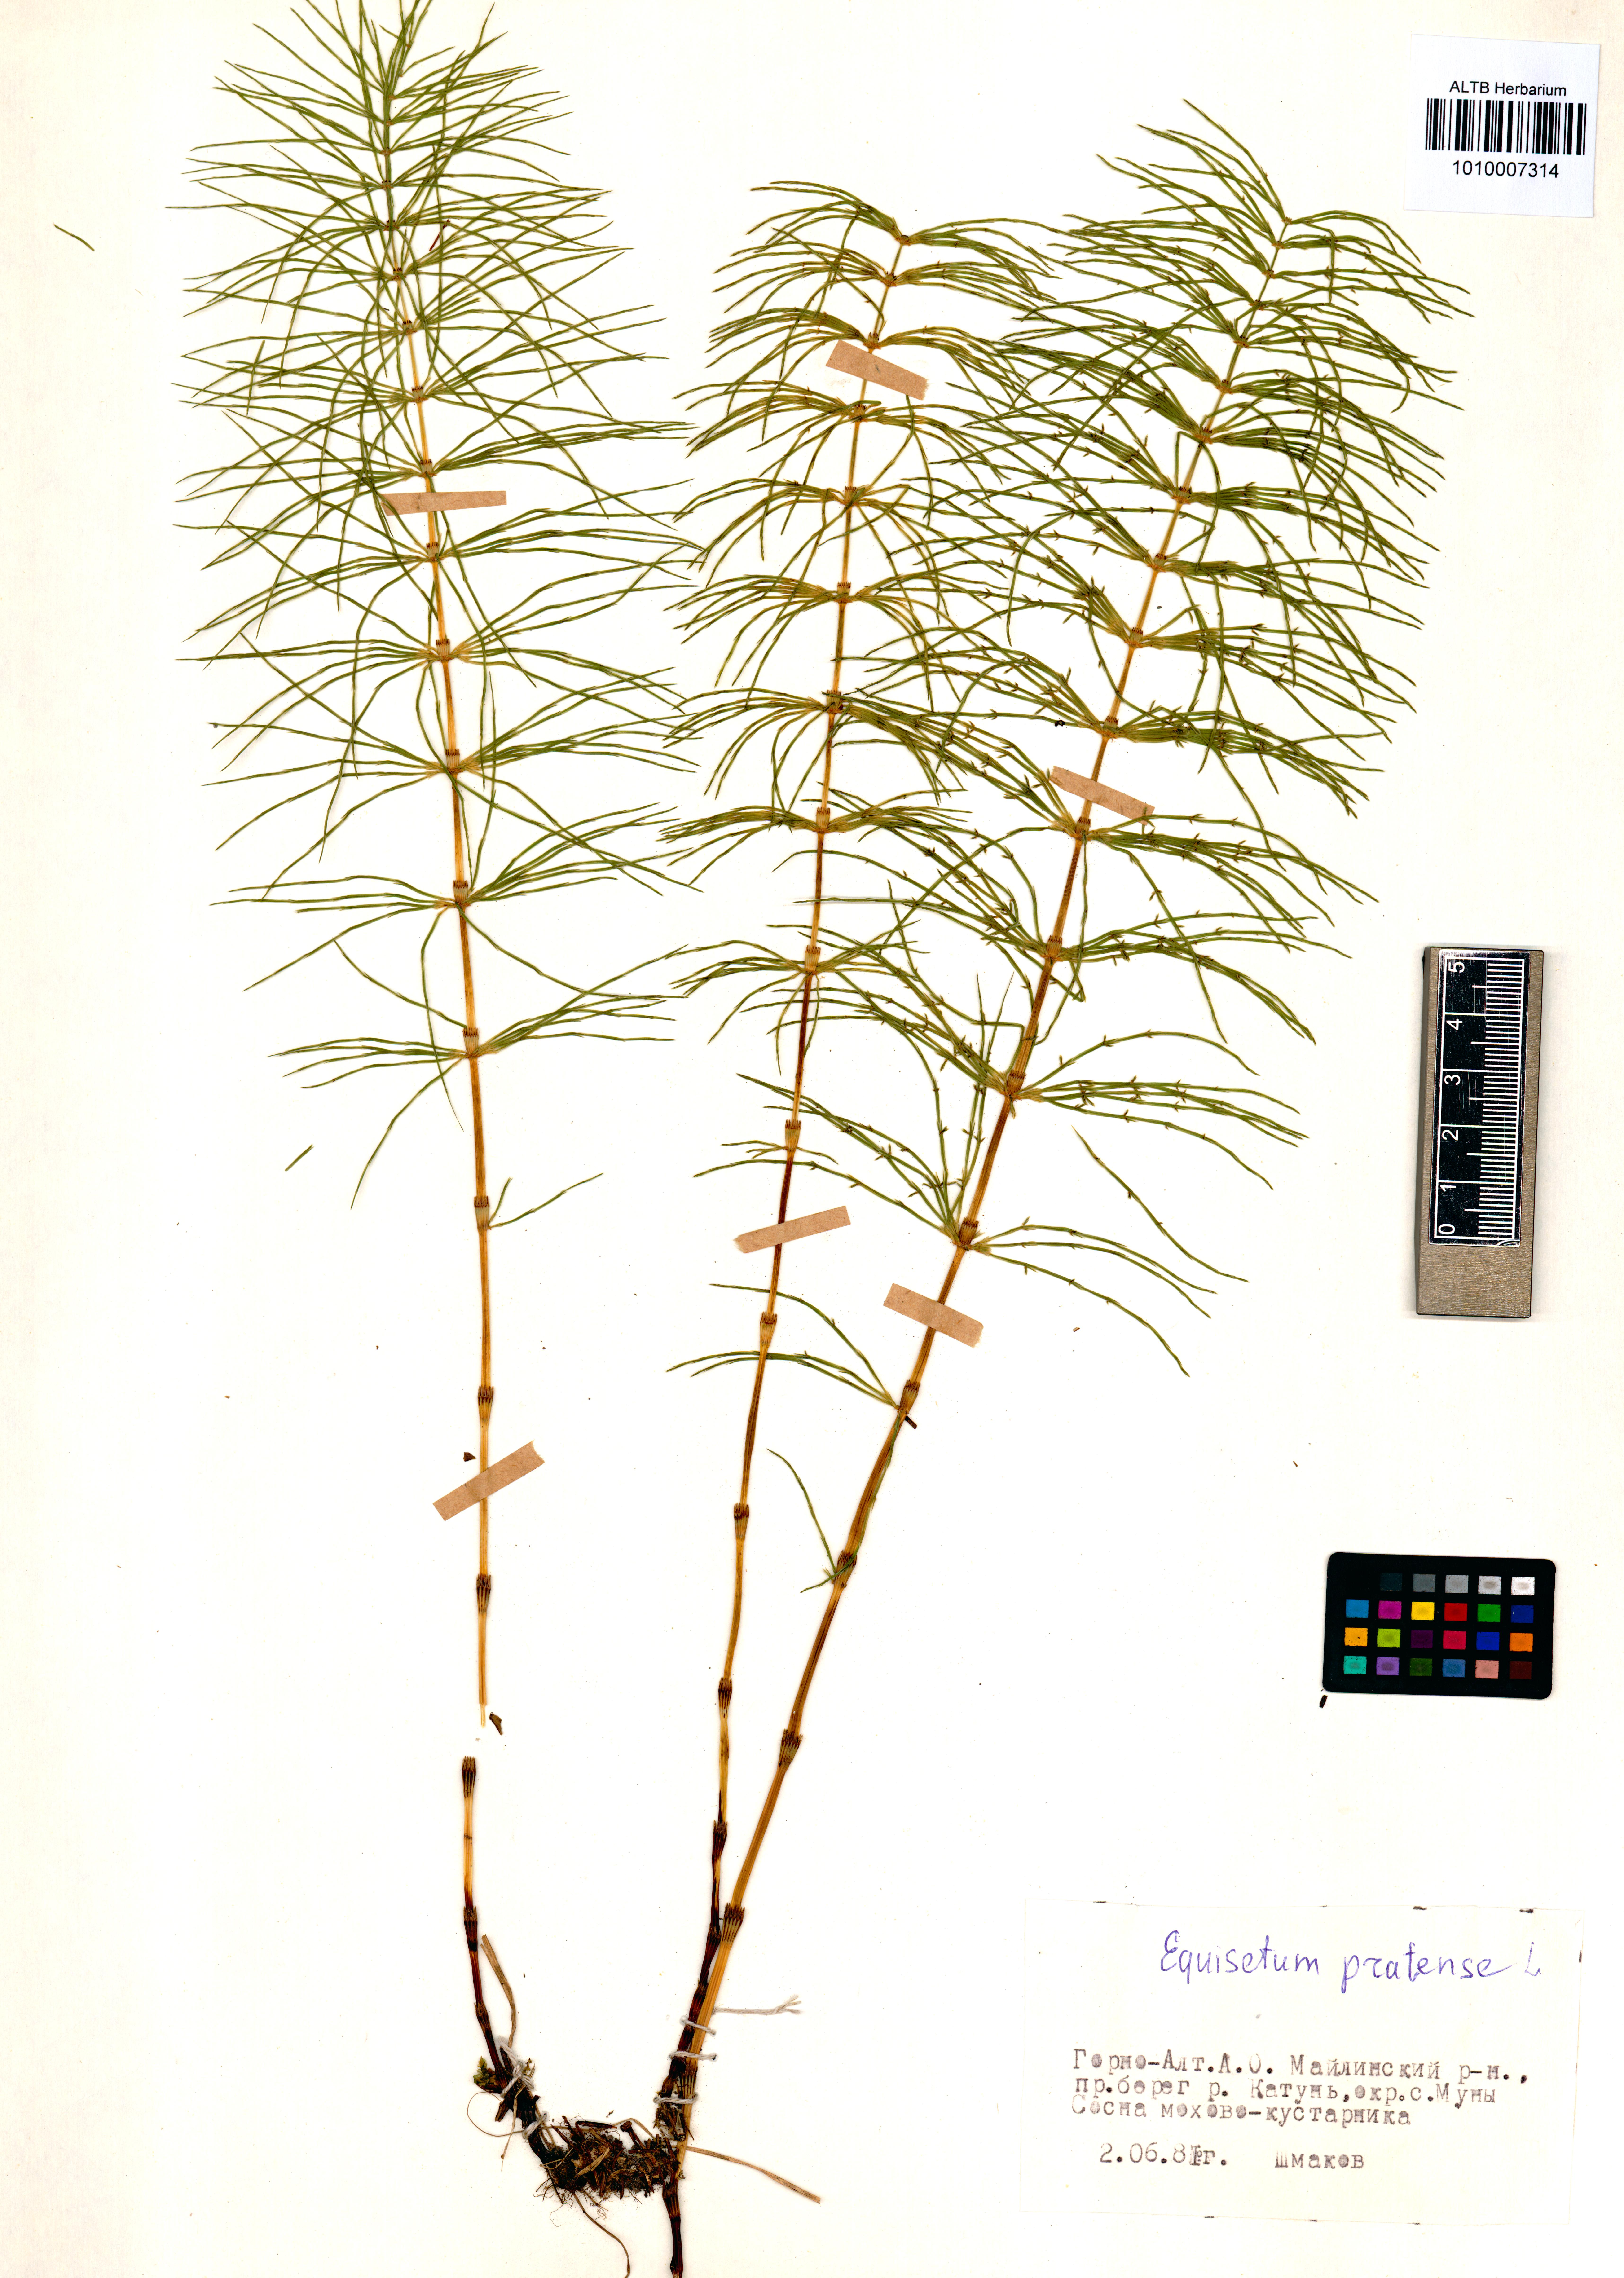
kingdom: Plantae
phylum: Tracheophyta
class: Polypodiopsida
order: Equisetales
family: Equisetaceae
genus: Equisetum
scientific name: Equisetum pratense
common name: Meadow horsetail
